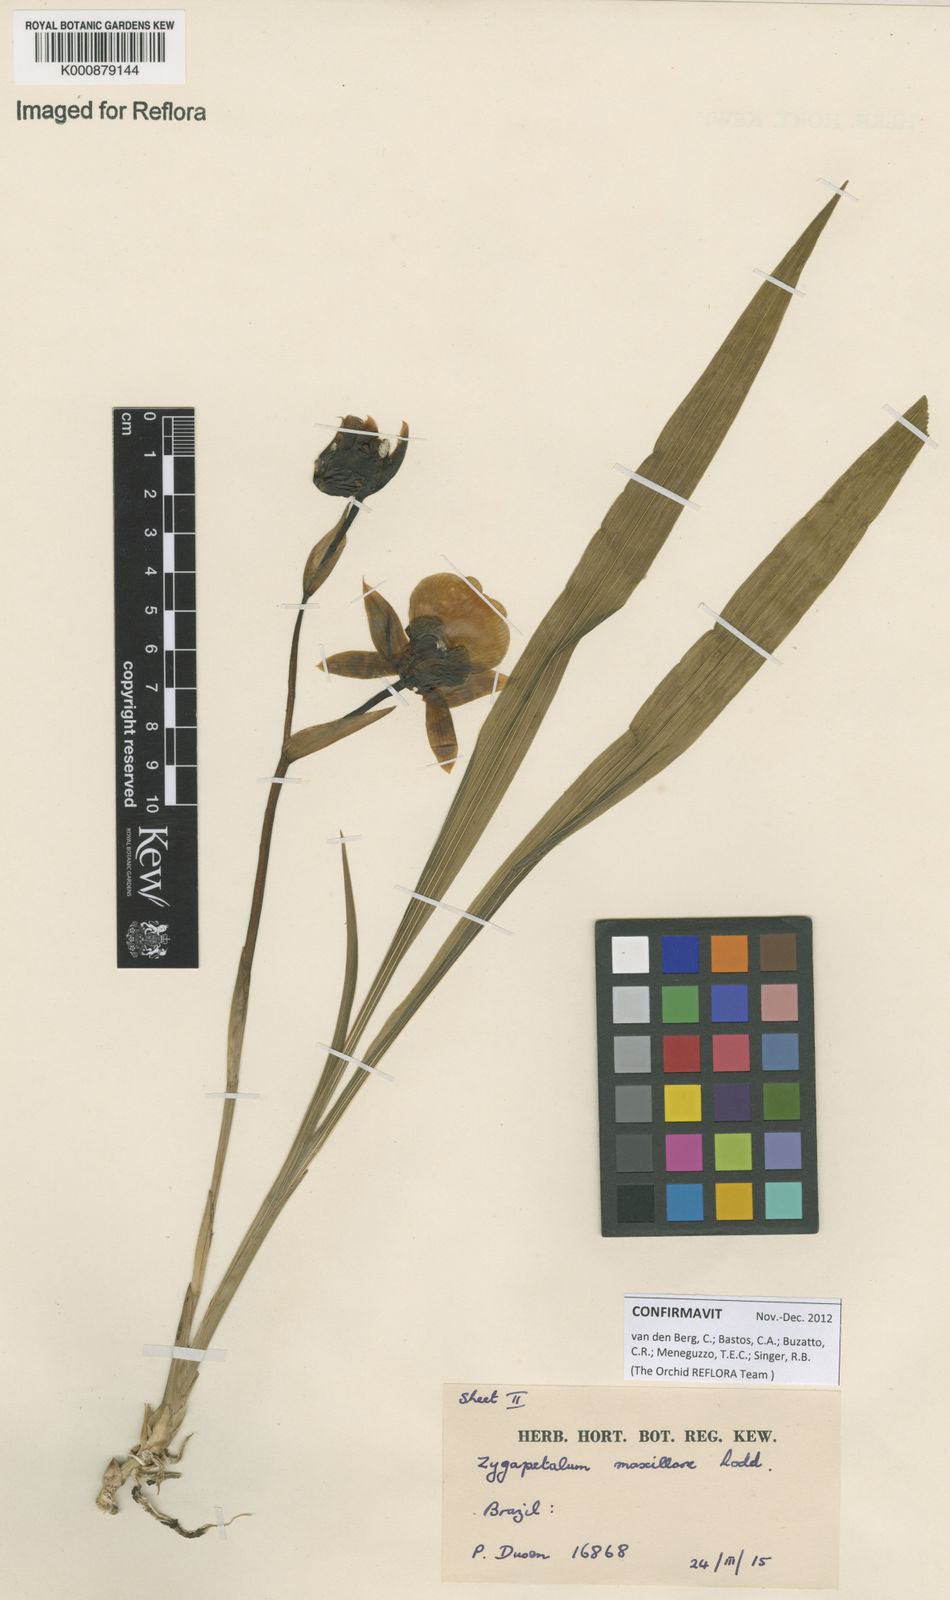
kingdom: Plantae
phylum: Tracheophyta
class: Liliopsida
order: Asparagales
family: Orchidaceae
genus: Zygopetalum
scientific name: Zygopetalum maxillare
